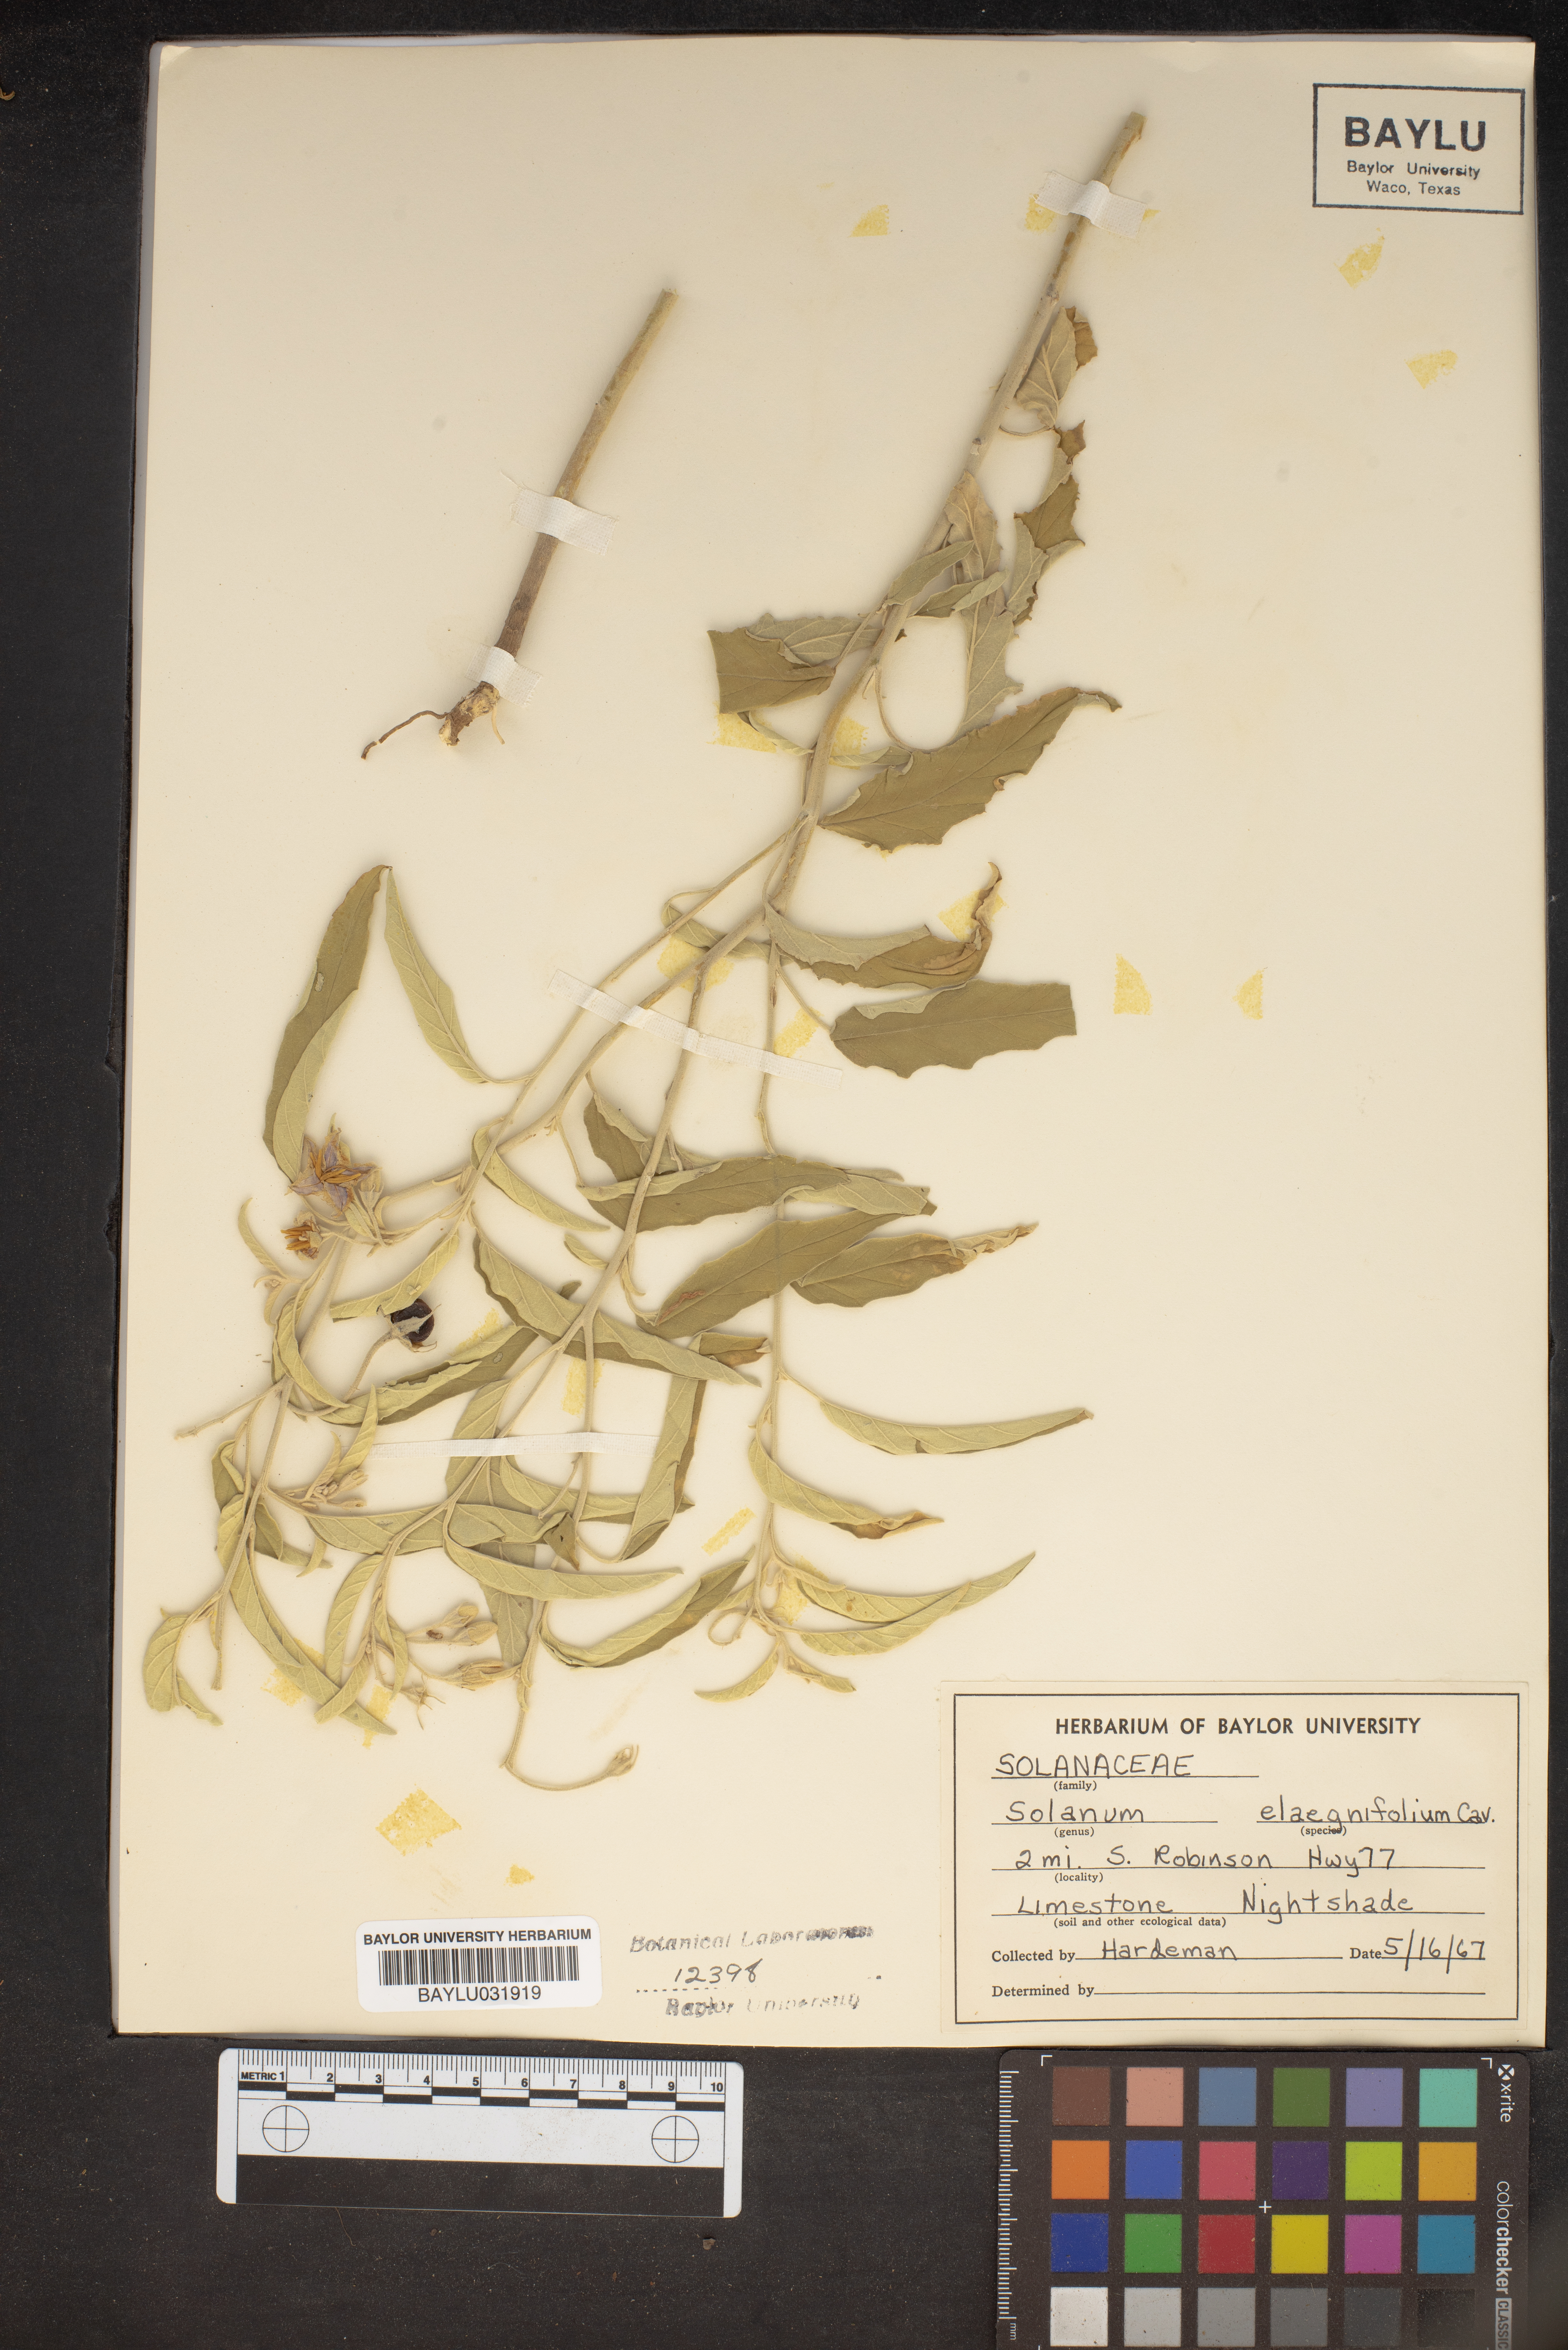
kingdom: Plantae
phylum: Tracheophyta
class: Magnoliopsida
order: Solanales
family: Solanaceae
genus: Solanum
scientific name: Solanum elaeagnifolium
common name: Silverleaf nightshade
